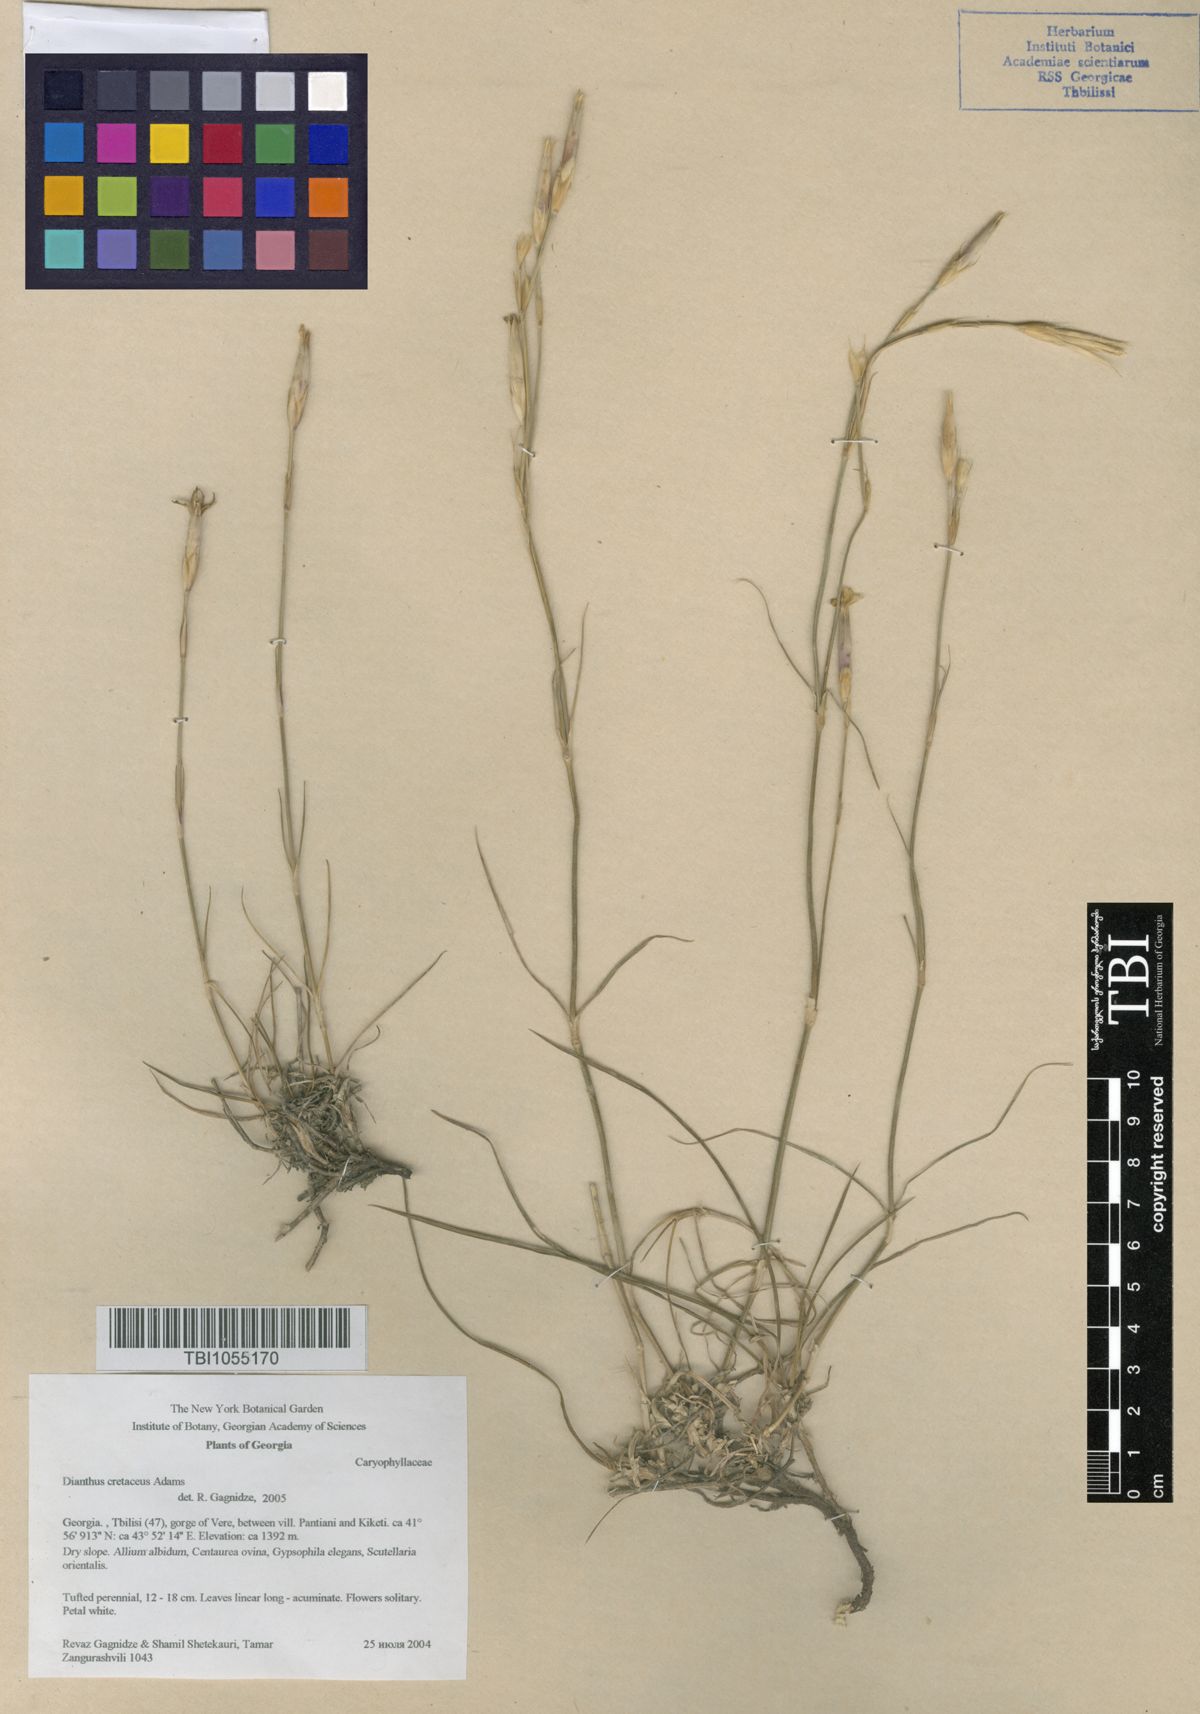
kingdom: Plantae
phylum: Tracheophyta
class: Magnoliopsida
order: Caryophyllales
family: Caryophyllaceae
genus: Dianthus
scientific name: Dianthus cretaceus
